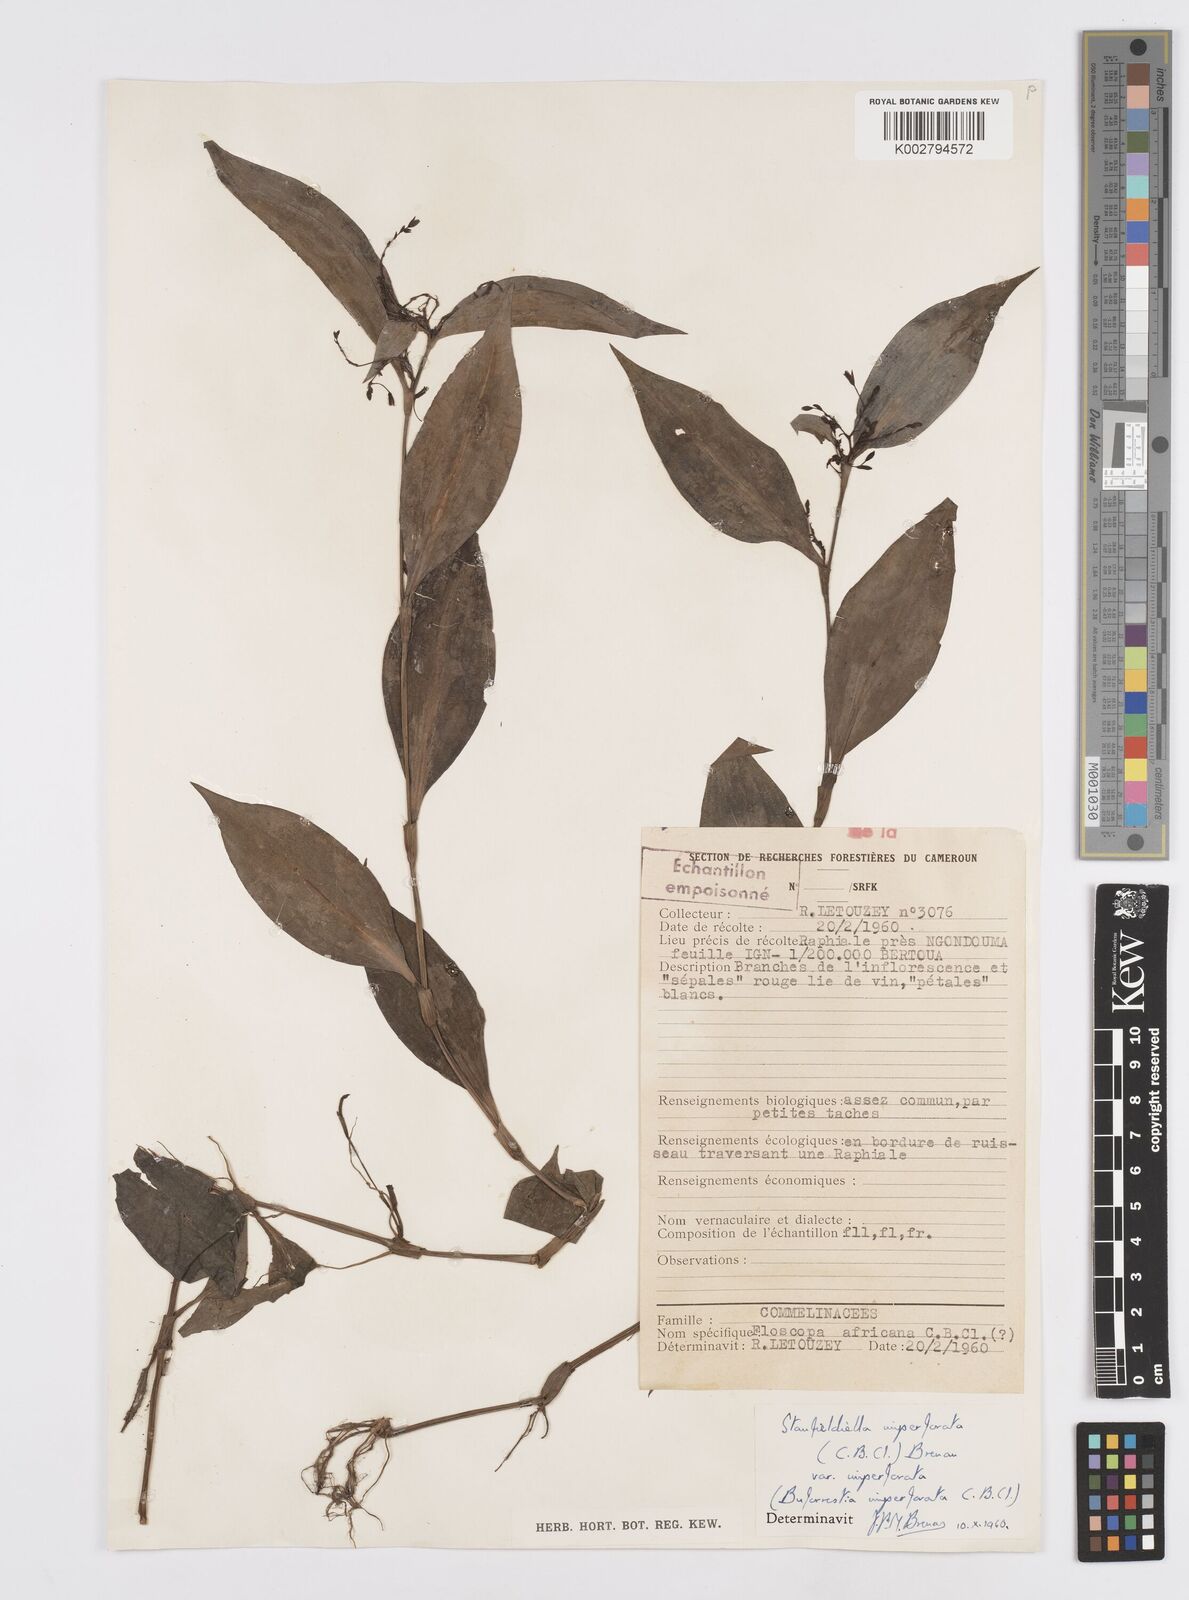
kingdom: Plantae
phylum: Tracheophyta
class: Liliopsida
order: Commelinales
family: Commelinaceae
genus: Stanfieldiella
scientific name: Stanfieldiella imperforata
